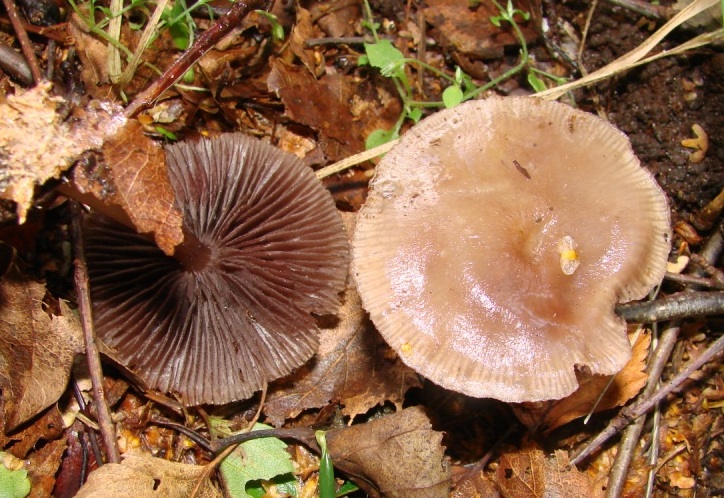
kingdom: Fungi
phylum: Basidiomycota
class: Agaricomycetes
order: Agaricales
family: Mycenaceae
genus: Mycena
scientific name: Mycena pelianthina
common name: mørkbladet huesvamp
